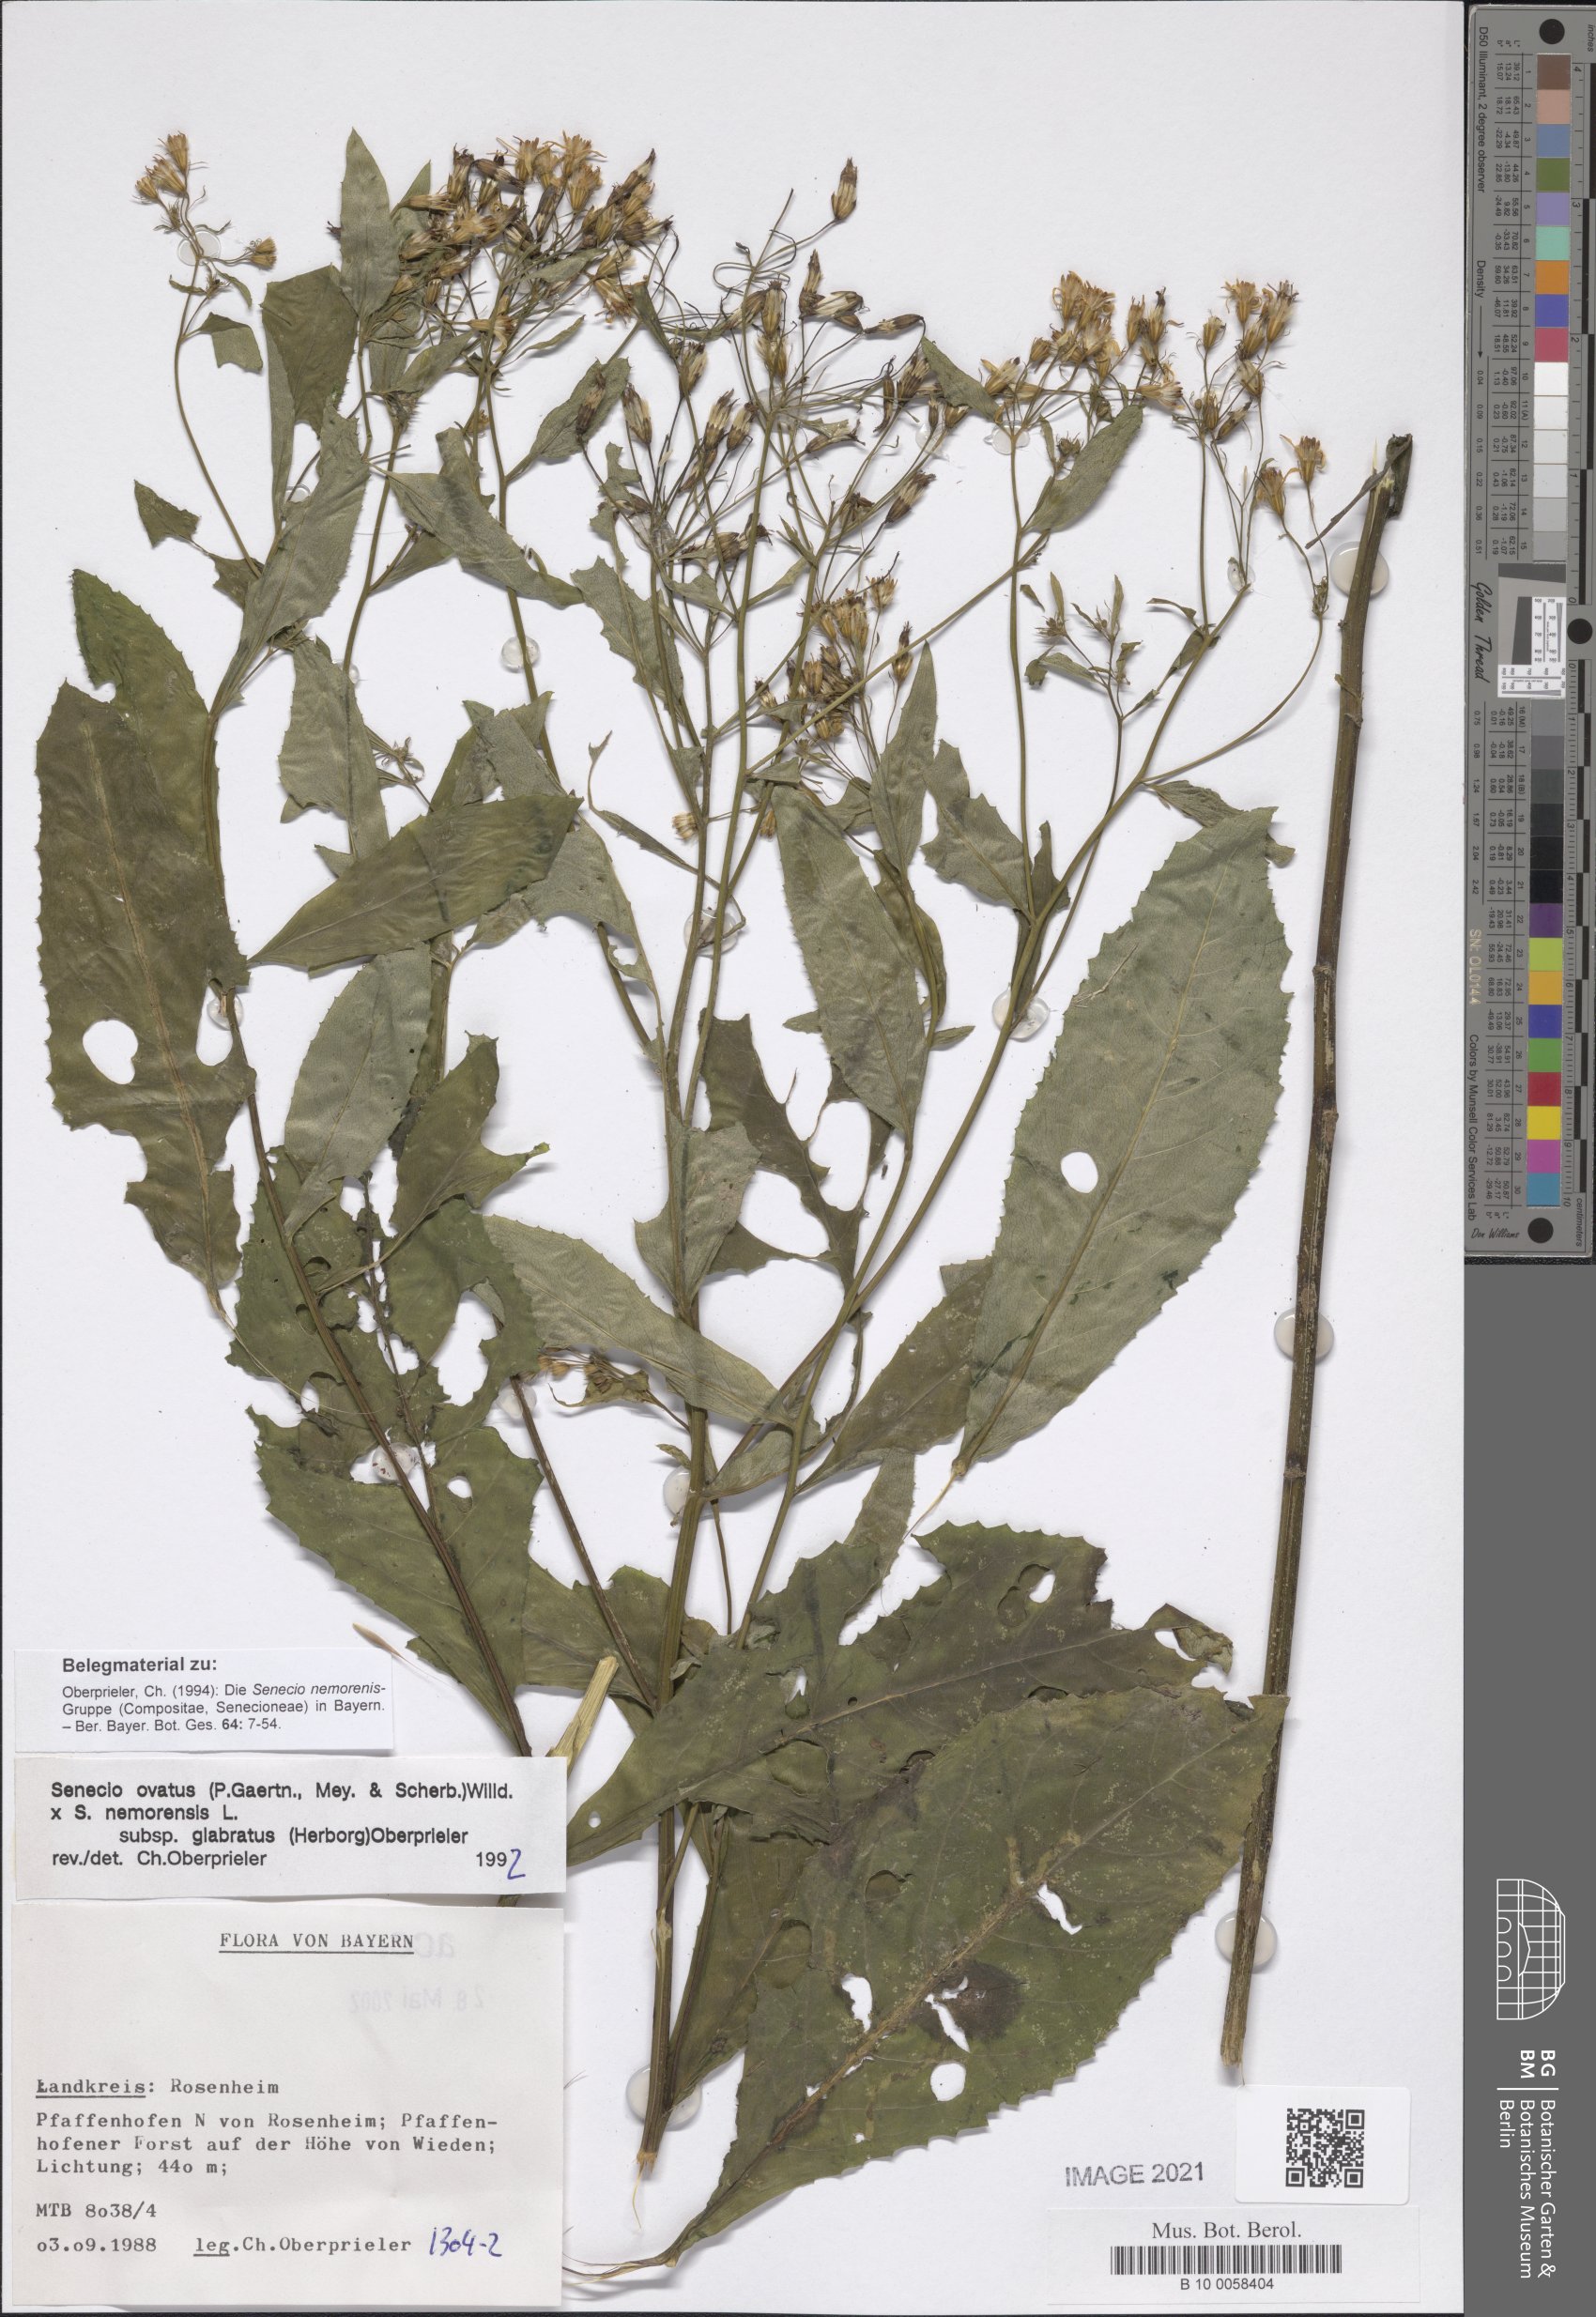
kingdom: Plantae
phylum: Tracheophyta
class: Magnoliopsida
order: Asterales
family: Asteraceae
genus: Senecio
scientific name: Senecio ovatus
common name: Wood ragwort
